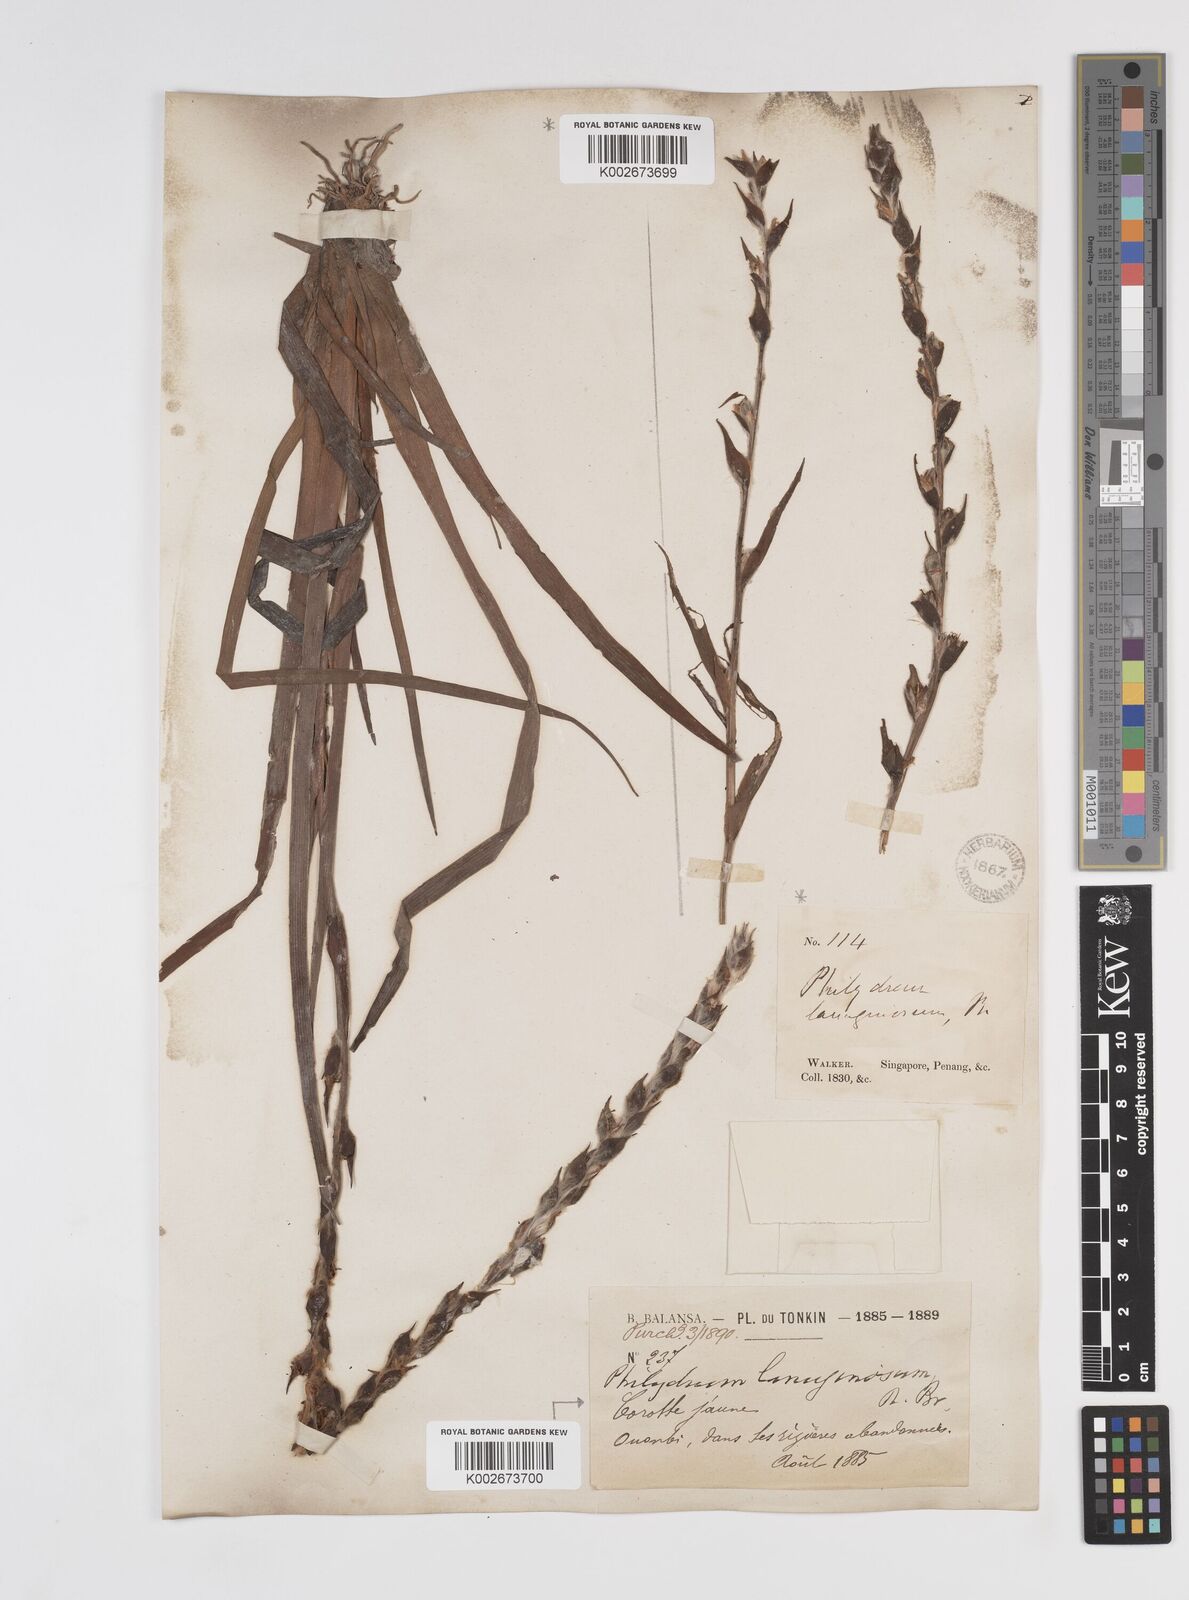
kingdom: Plantae
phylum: Tracheophyta
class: Liliopsida
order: Commelinales
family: Philydraceae
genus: Philydrum
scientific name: Philydrum lanuginosum
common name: Woolly frog's mouth
